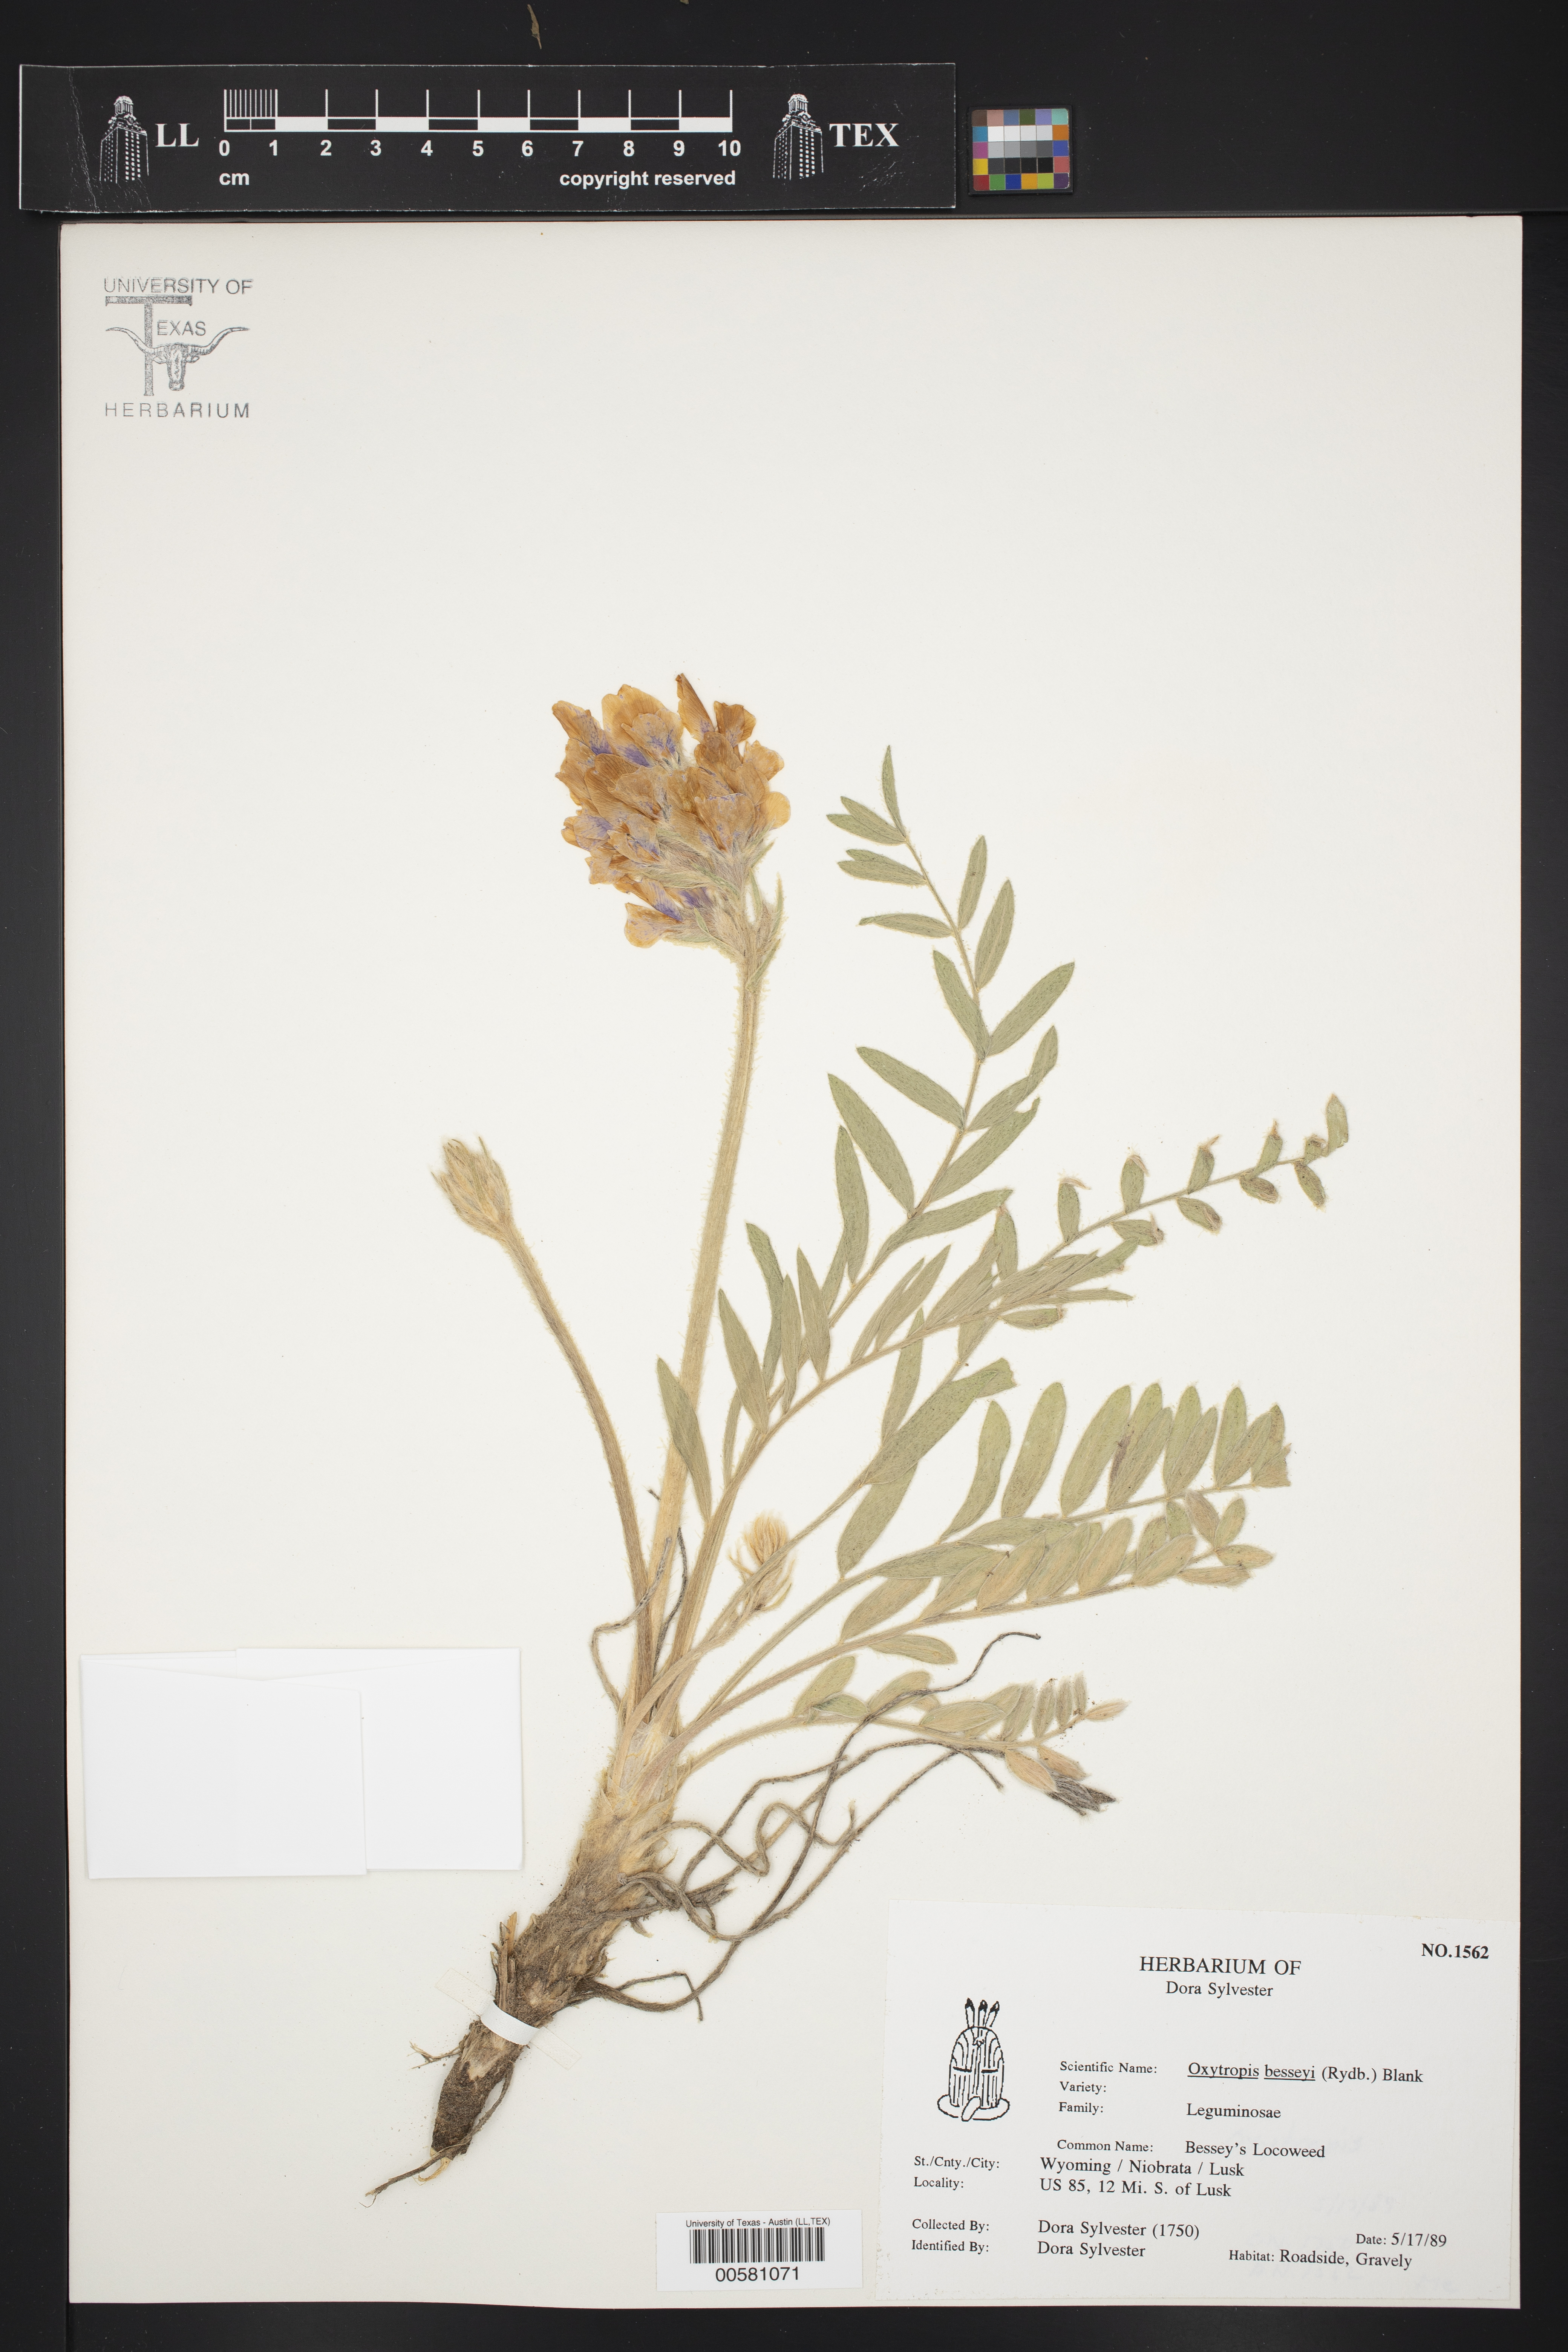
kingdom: Plantae
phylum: Tracheophyta
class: Magnoliopsida
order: Fabales
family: Fabaceae
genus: Oxytropis
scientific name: Oxytropis besseyi
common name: Bessey's locoweed
